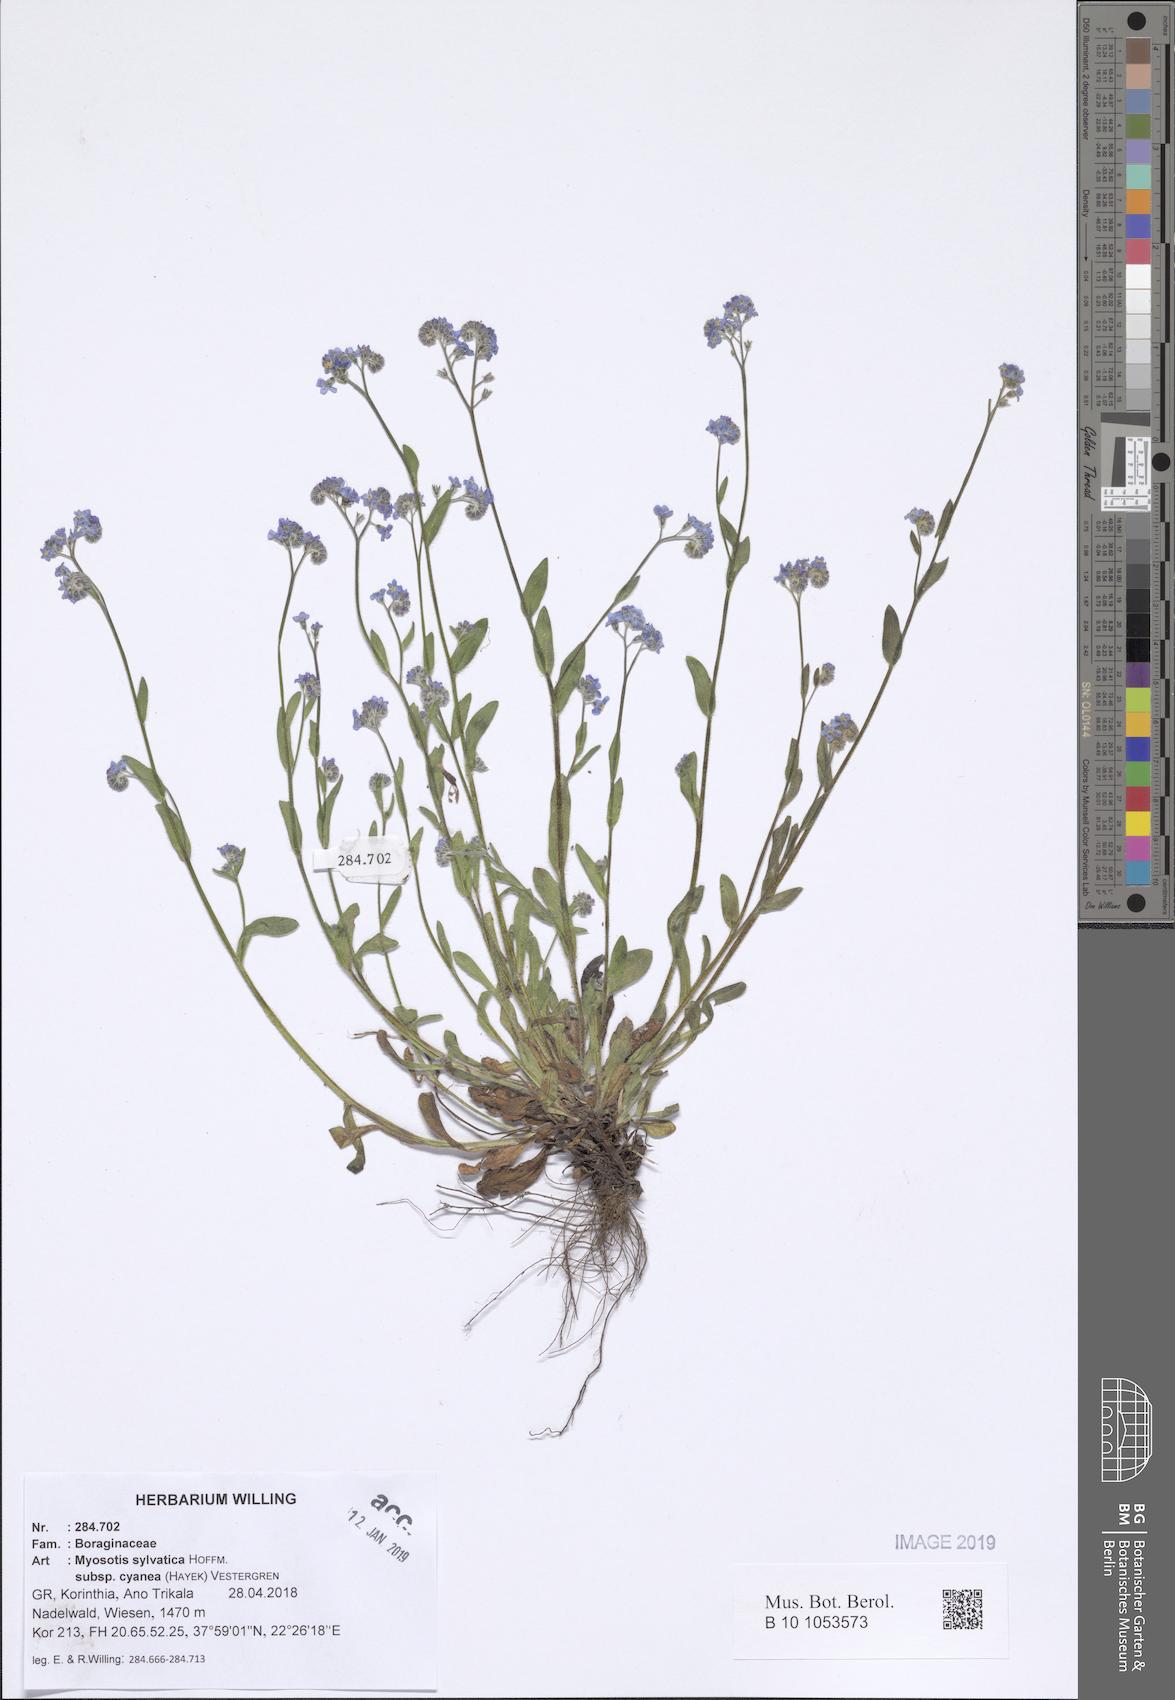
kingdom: Plantae
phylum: Tracheophyta
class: Magnoliopsida
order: Boraginales
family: Boraginaceae
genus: Myosotis
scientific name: Myosotis sylvatica
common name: Wood forget-me-not
